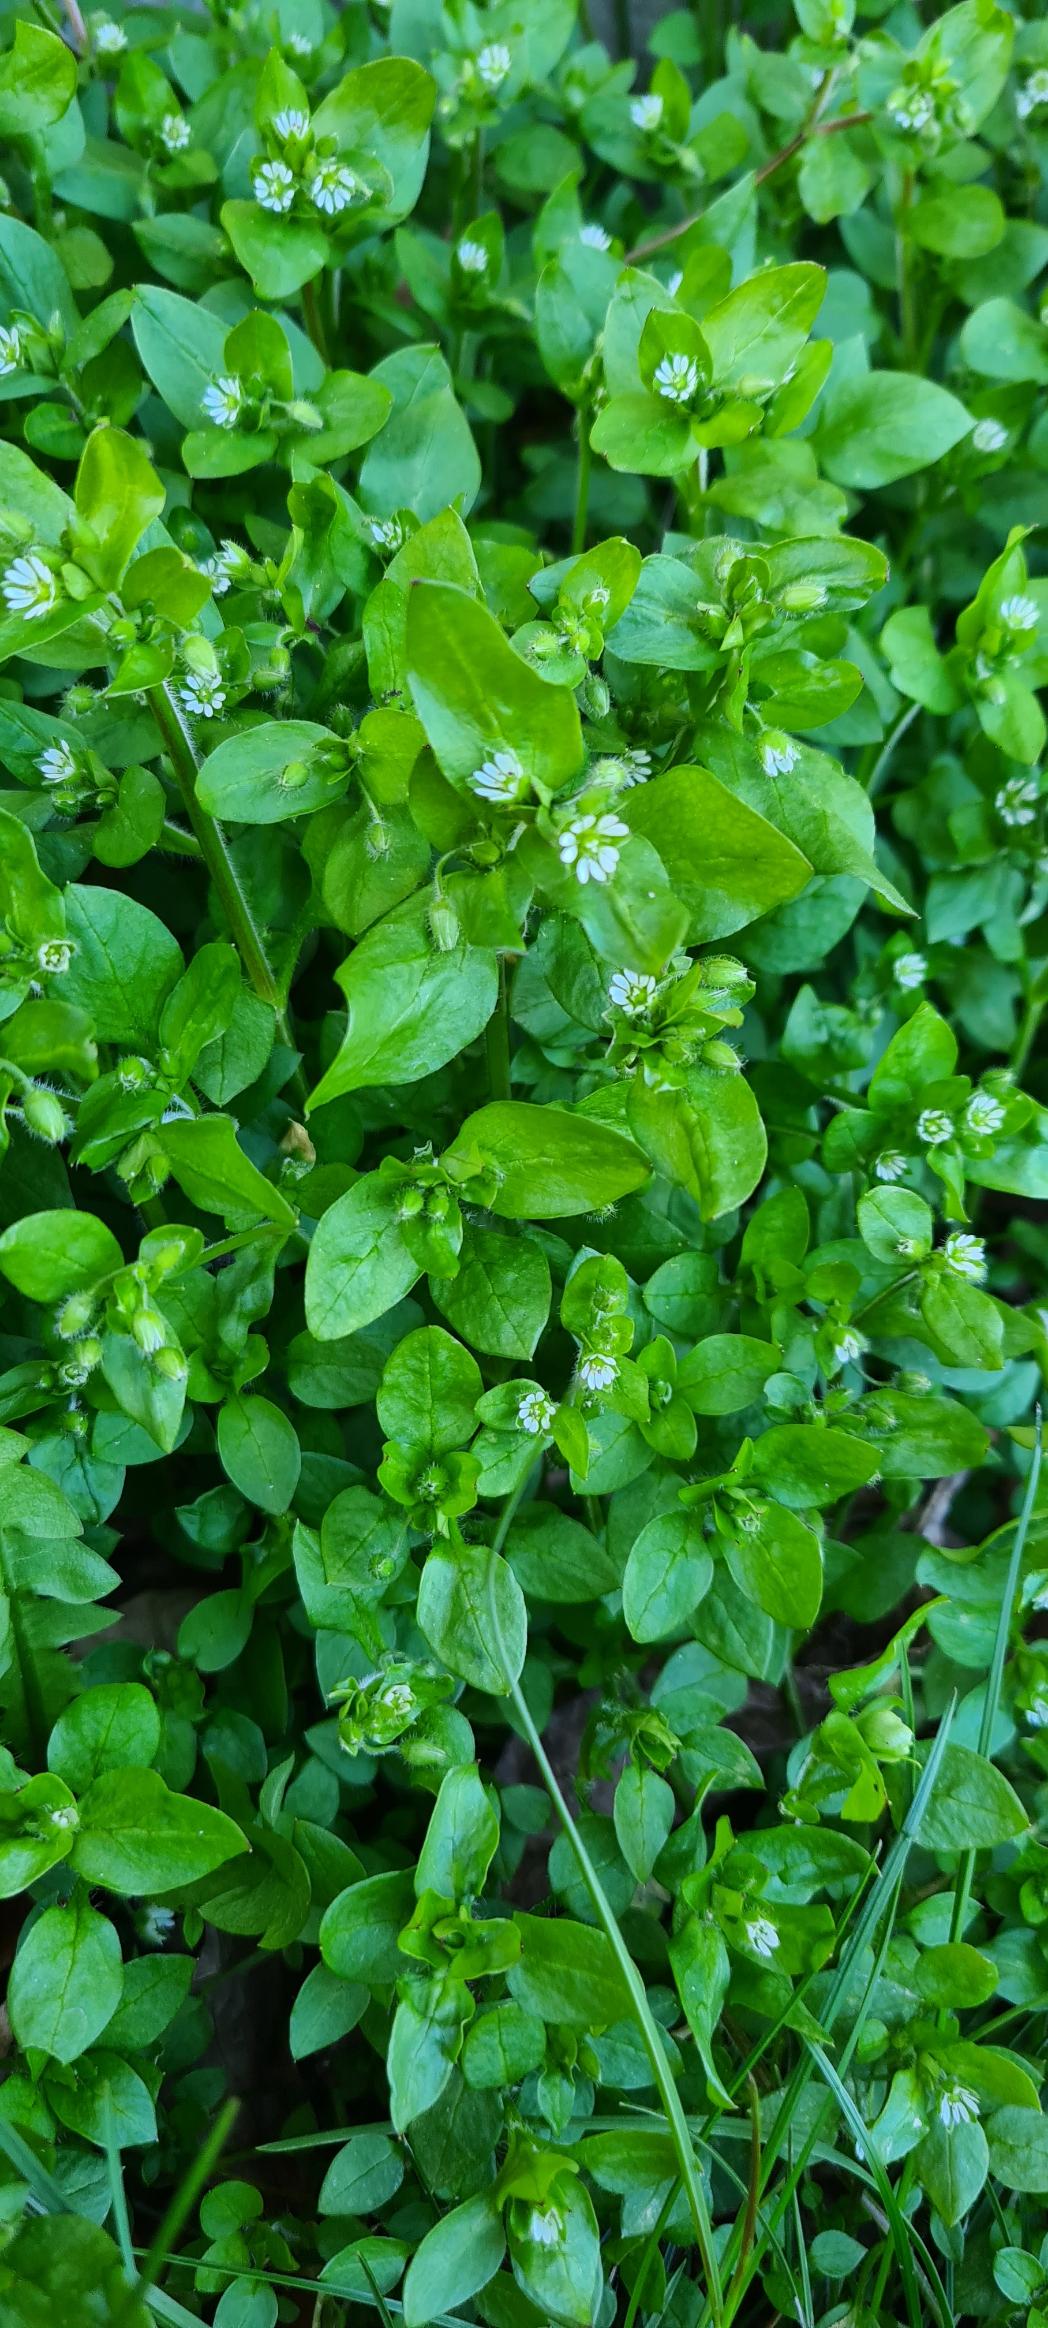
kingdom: Plantae
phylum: Tracheophyta
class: Magnoliopsida
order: Caryophyllales
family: Caryophyllaceae
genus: Stellaria
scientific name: Stellaria media
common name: Almindelig fuglegræs
